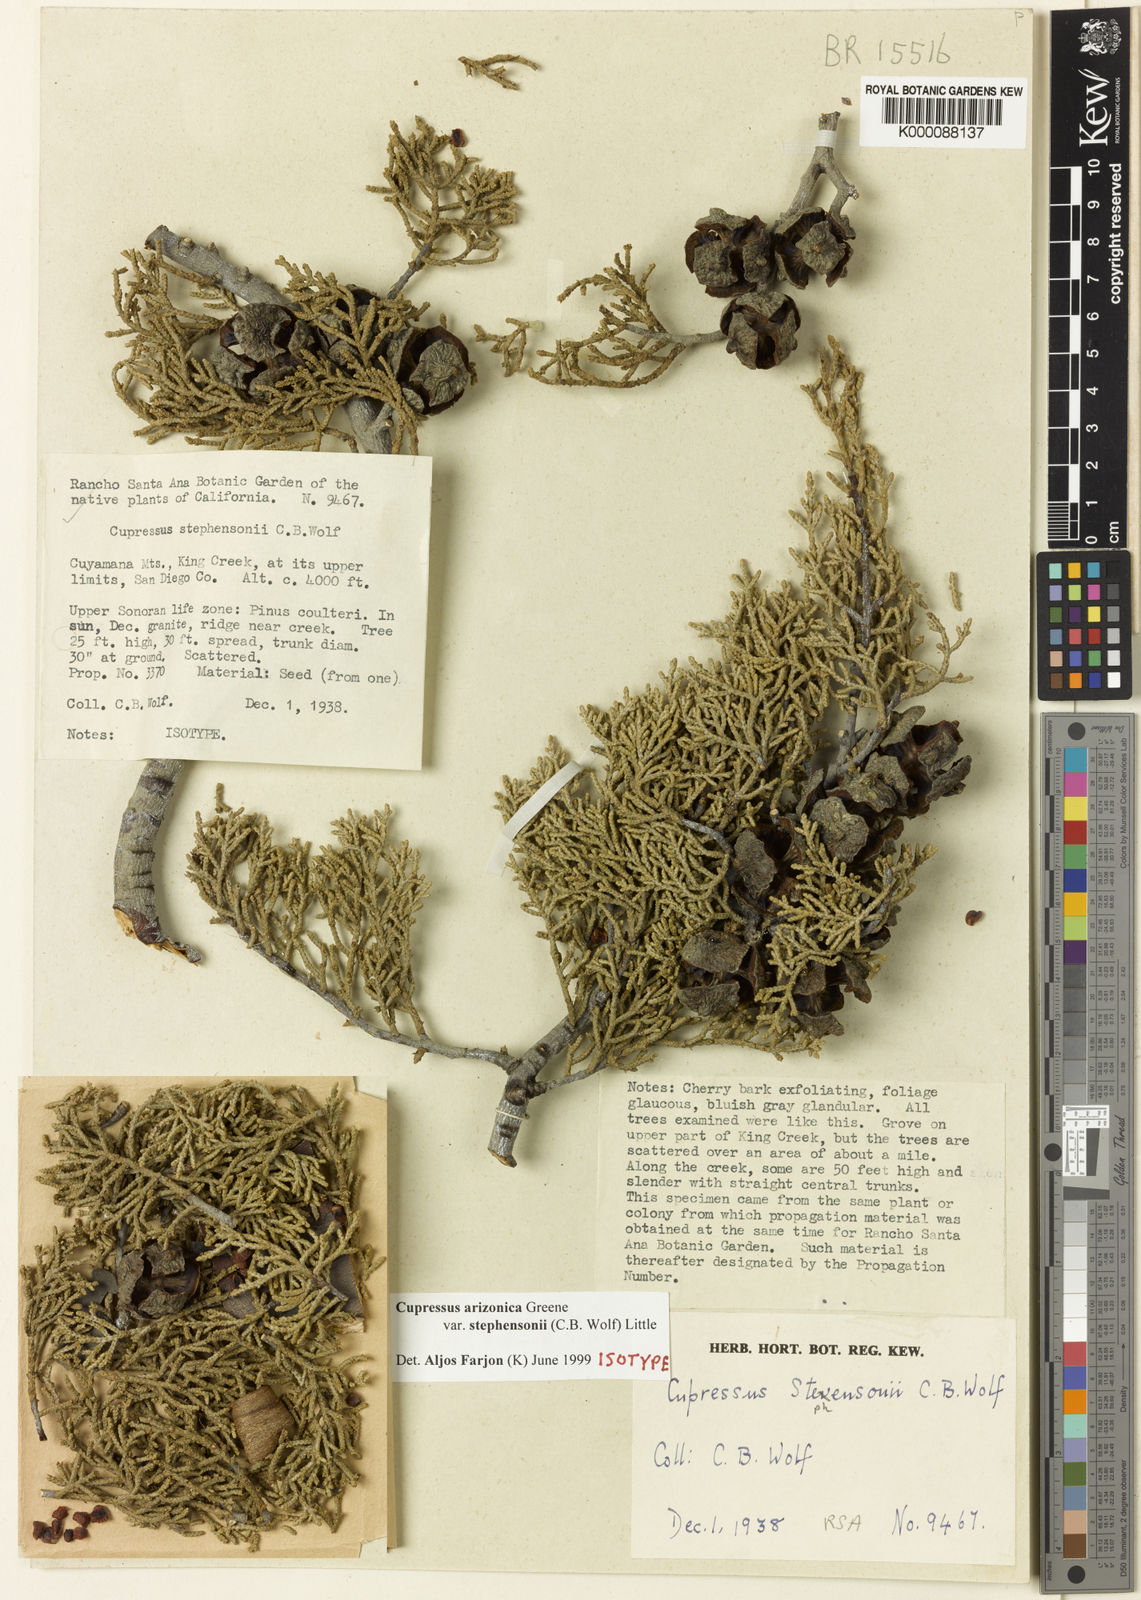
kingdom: Plantae
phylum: Tracheophyta
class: Pinopsida
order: Pinales
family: Cupressaceae
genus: Cupressus
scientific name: Cupressus arizonica
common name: Arizona cypress
